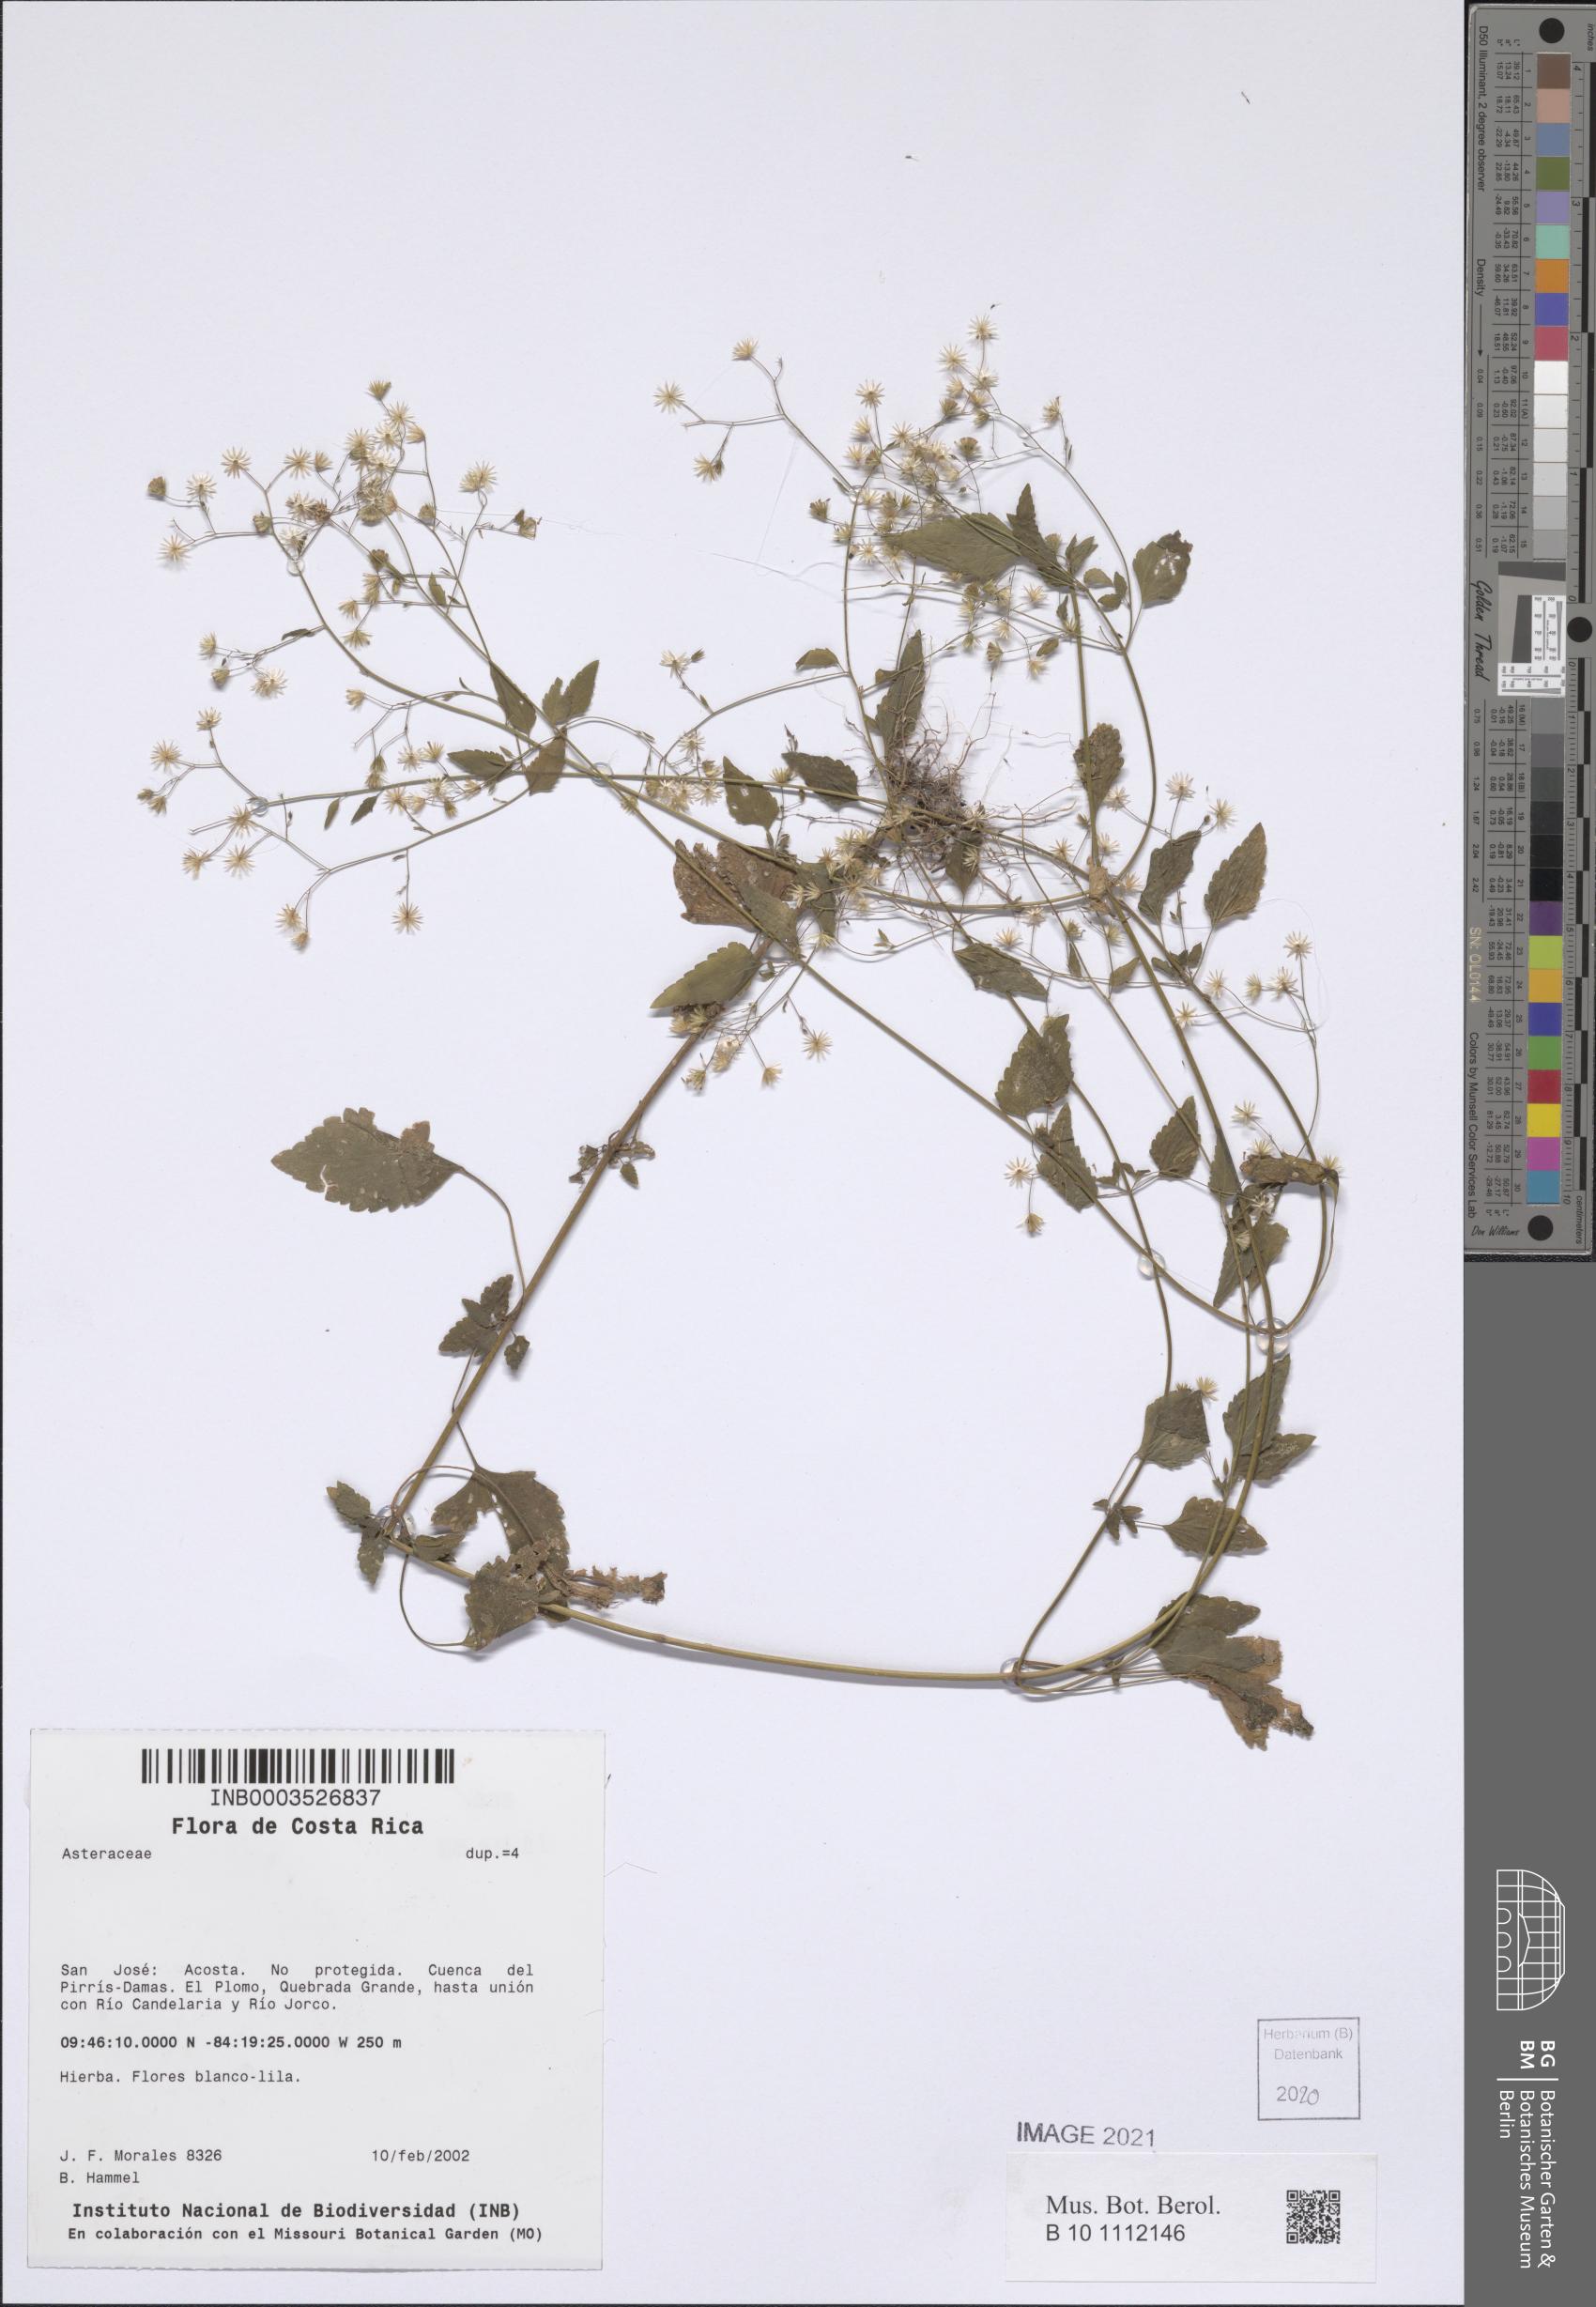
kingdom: Plantae
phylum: Tracheophyta
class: Magnoliopsida
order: Asterales
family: Asteraceae
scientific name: Asteraceae
